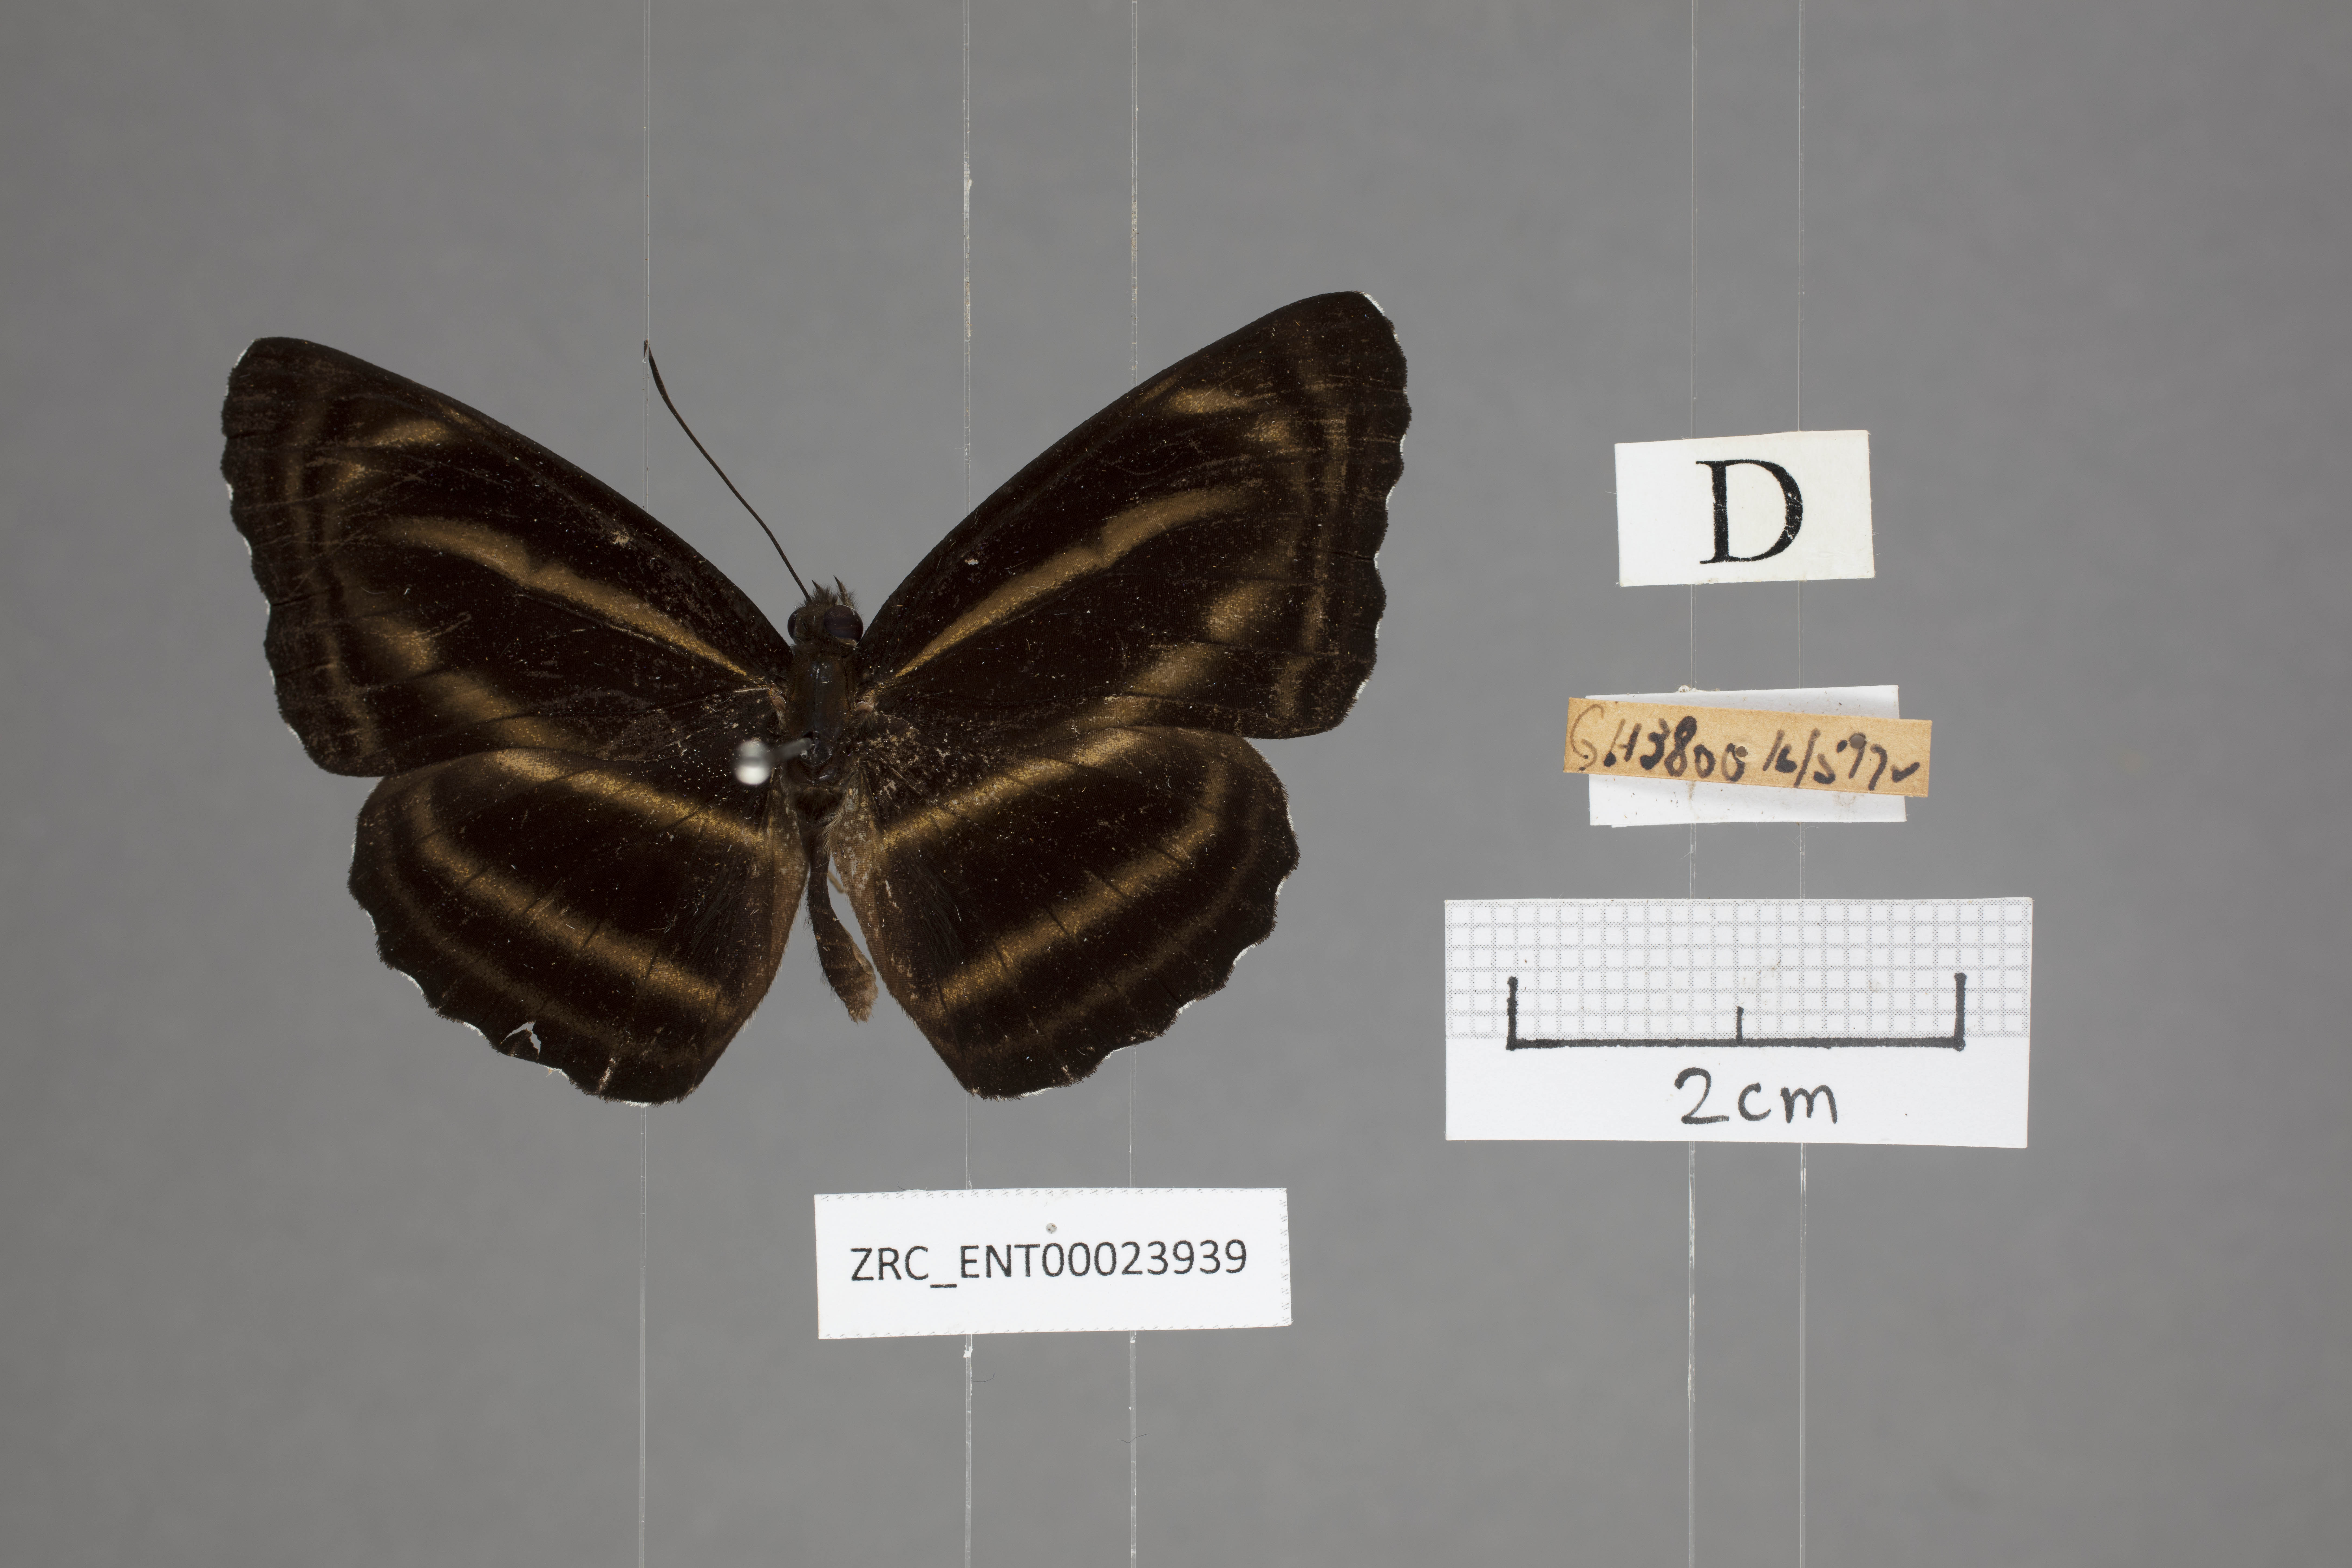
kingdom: Animalia
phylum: Arthropoda
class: Insecta
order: Lepidoptera
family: Nymphalidae
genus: Neptis
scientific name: Neptis anjana
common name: Rich sailer
